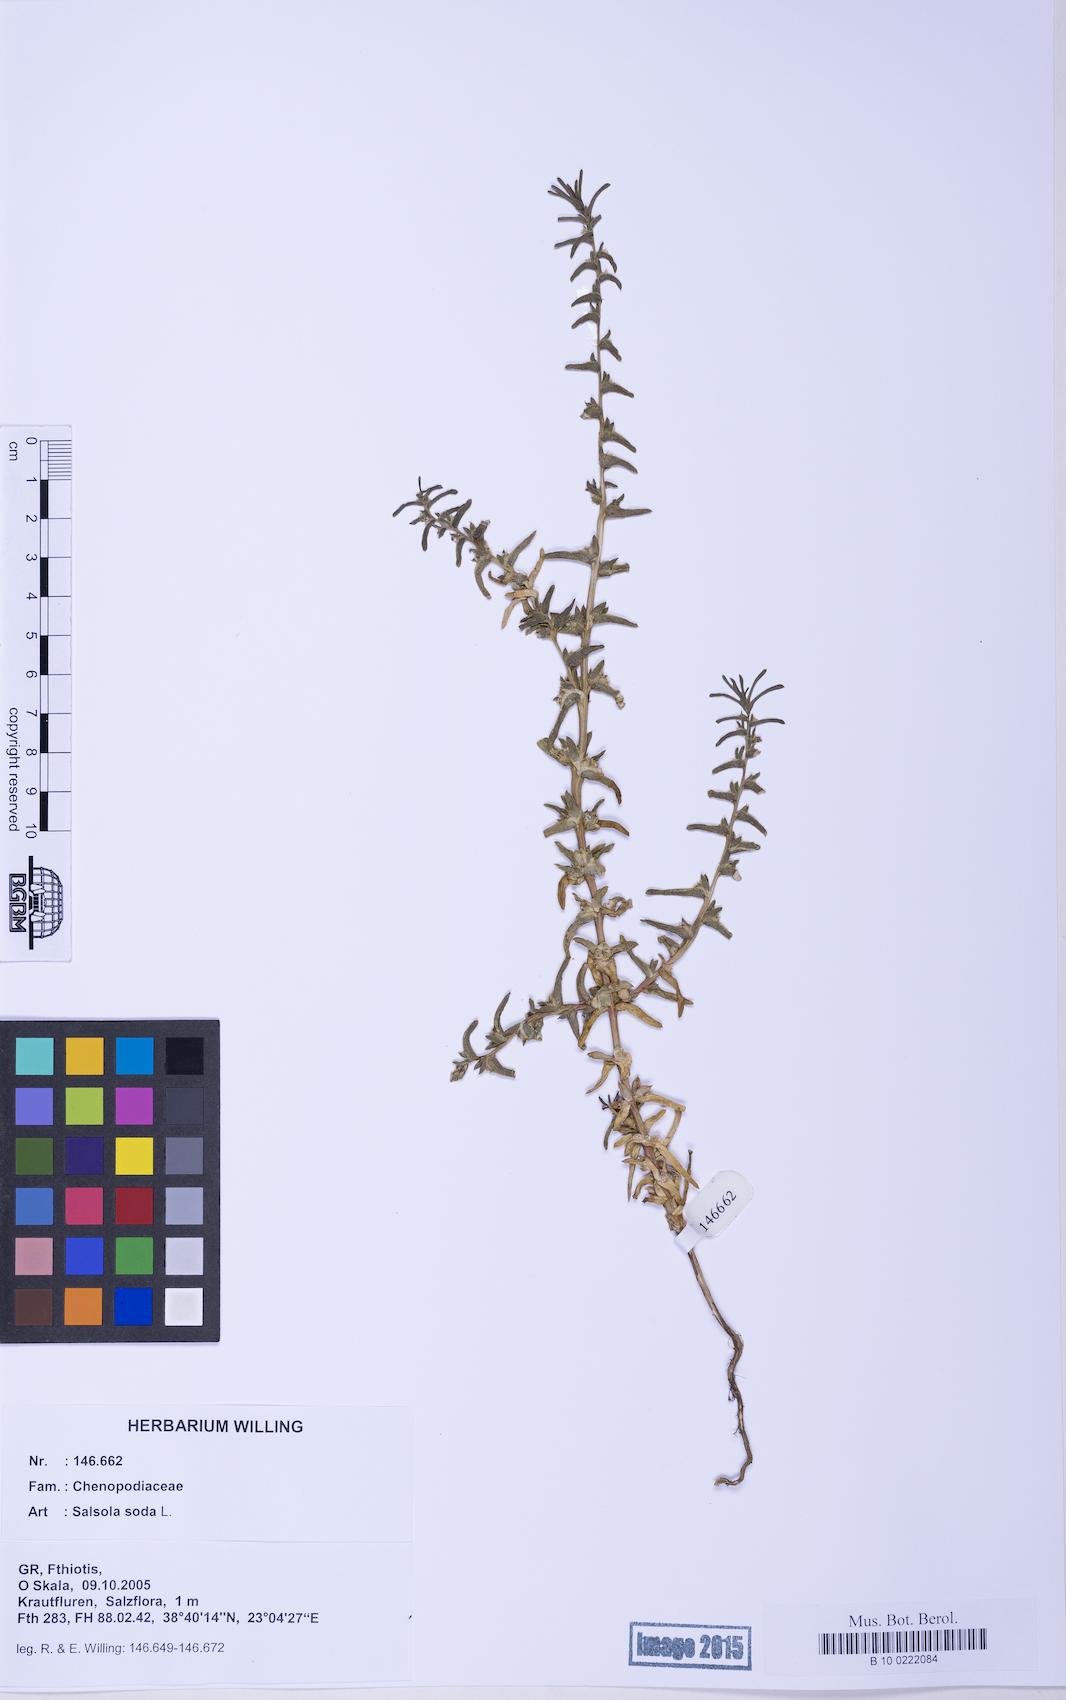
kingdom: Plantae
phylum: Tracheophyta
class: Magnoliopsida
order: Caryophyllales
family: Amaranthaceae
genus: Soda
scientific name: Soda inermis
